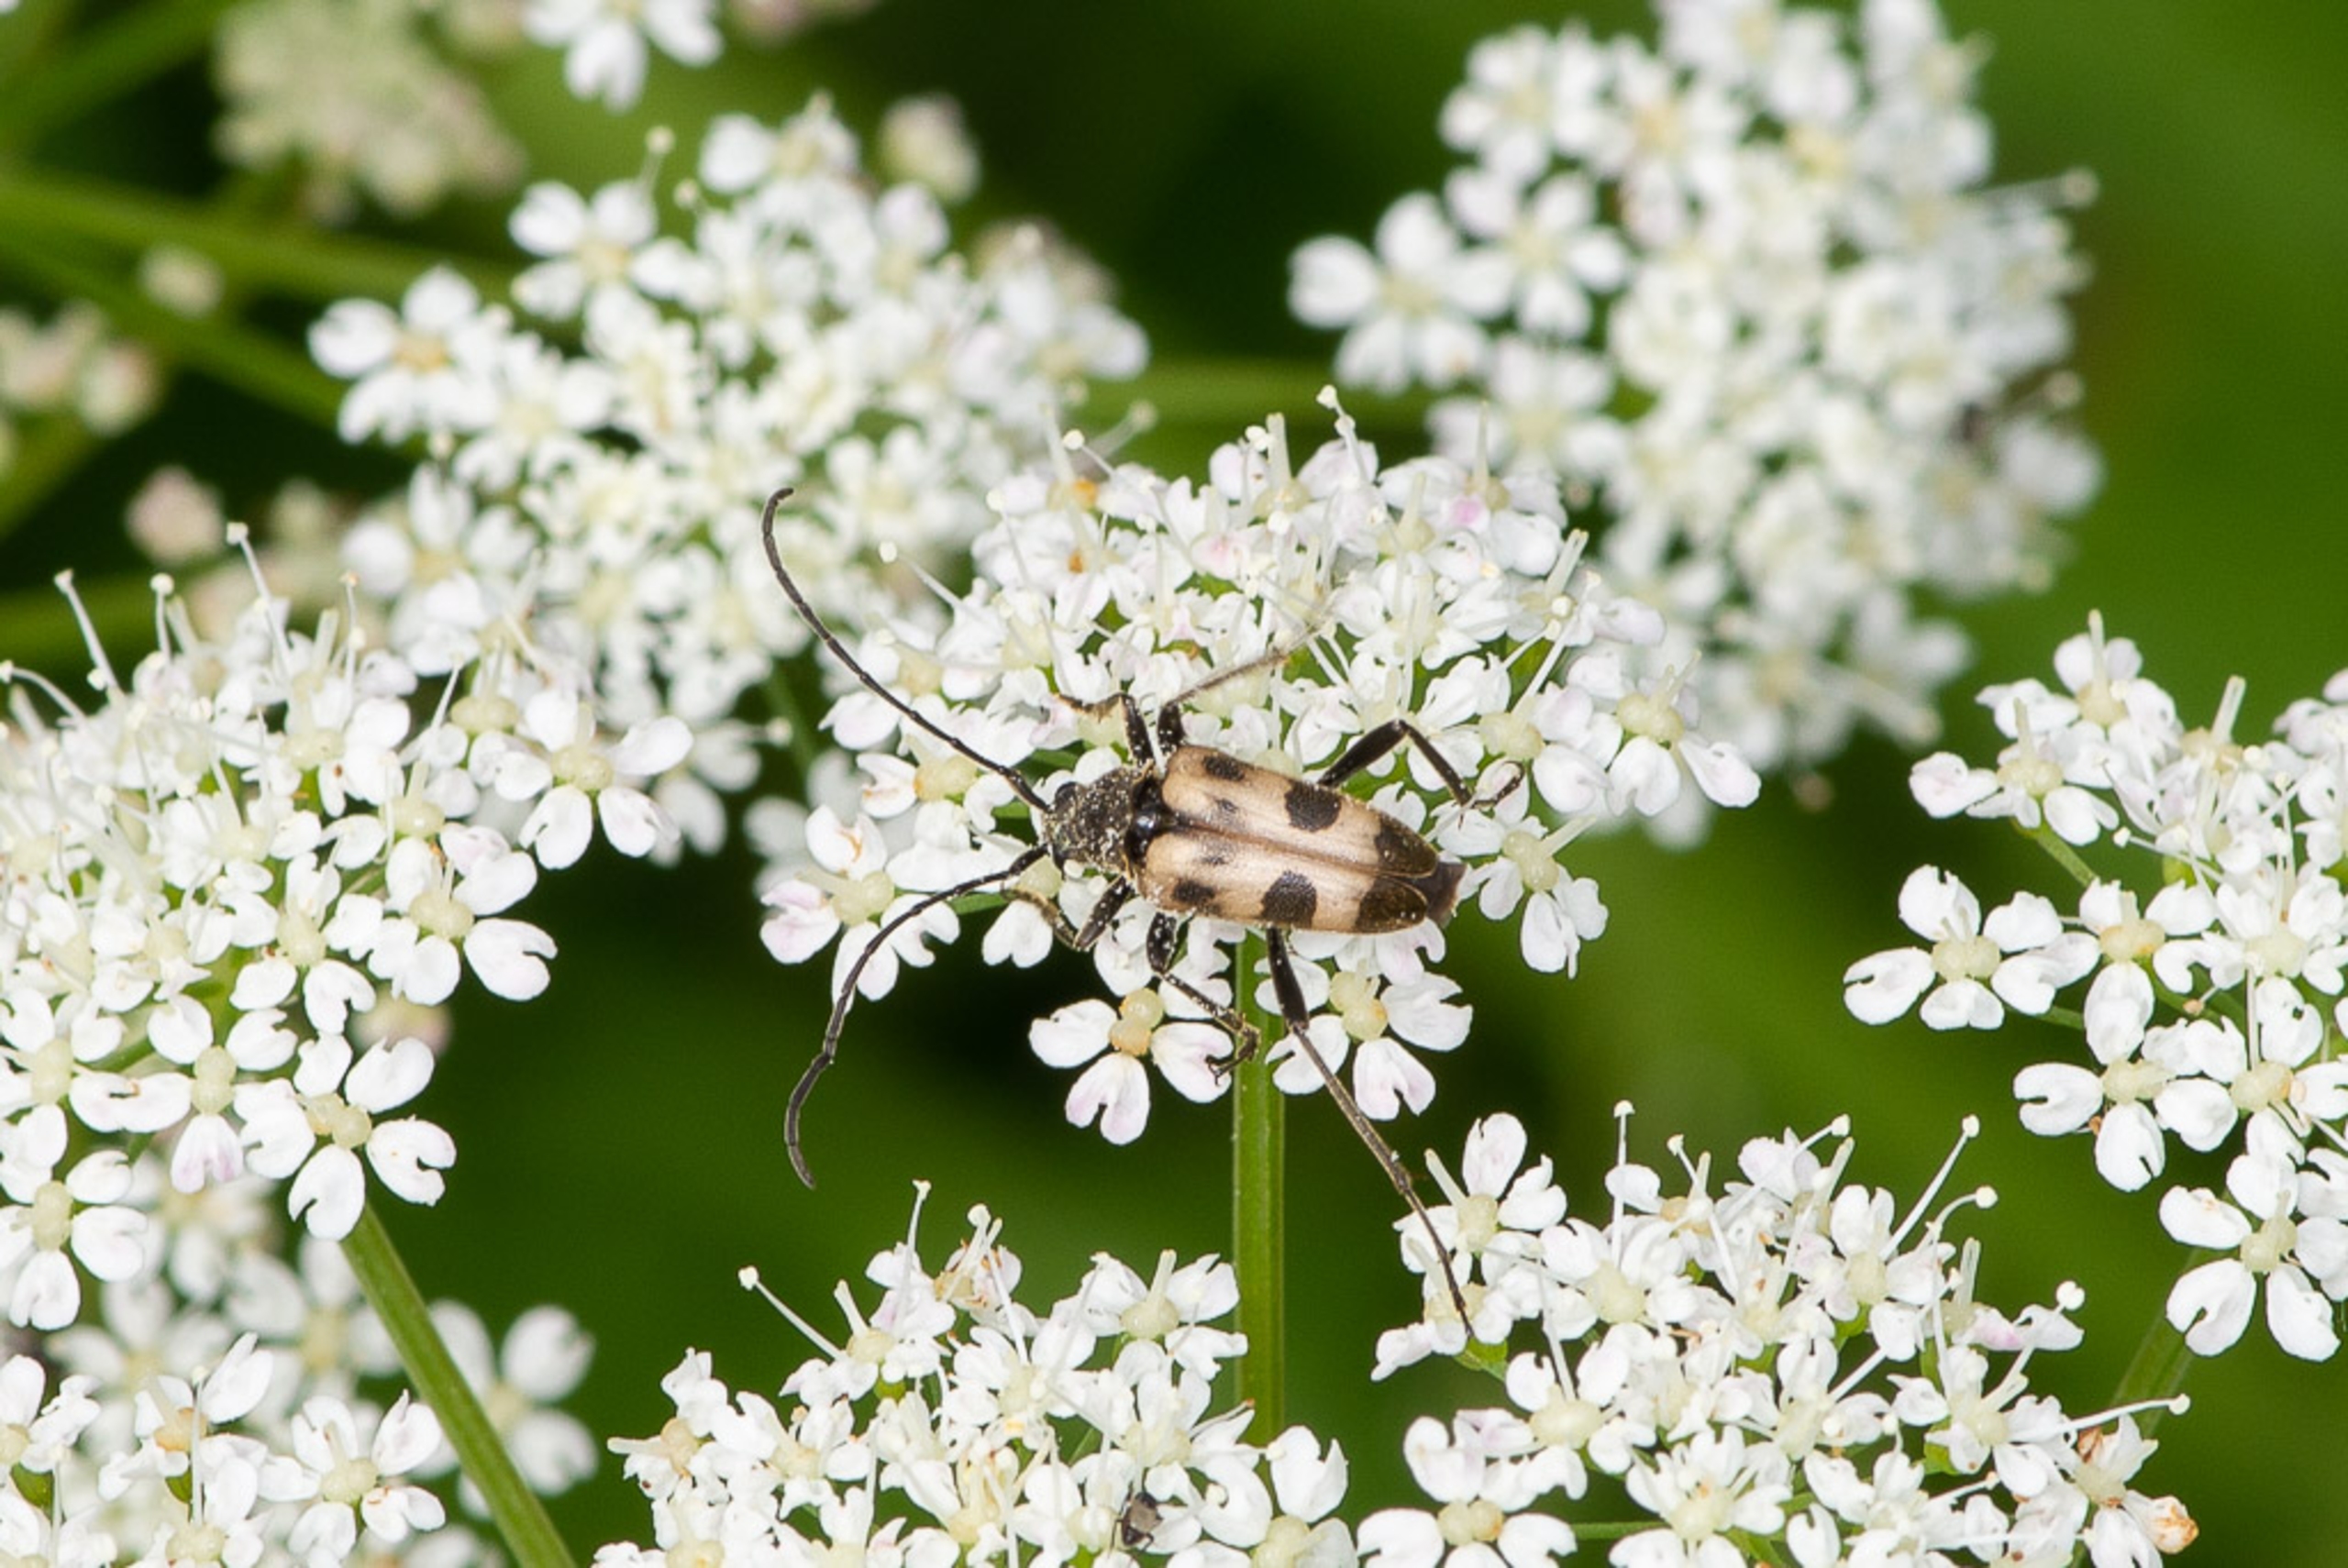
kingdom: Animalia
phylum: Arthropoda
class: Insecta
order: Coleoptera
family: Cerambycidae
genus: Pachytodes
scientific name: Pachytodes cerambyciformis
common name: Jysk blomsterbuk
